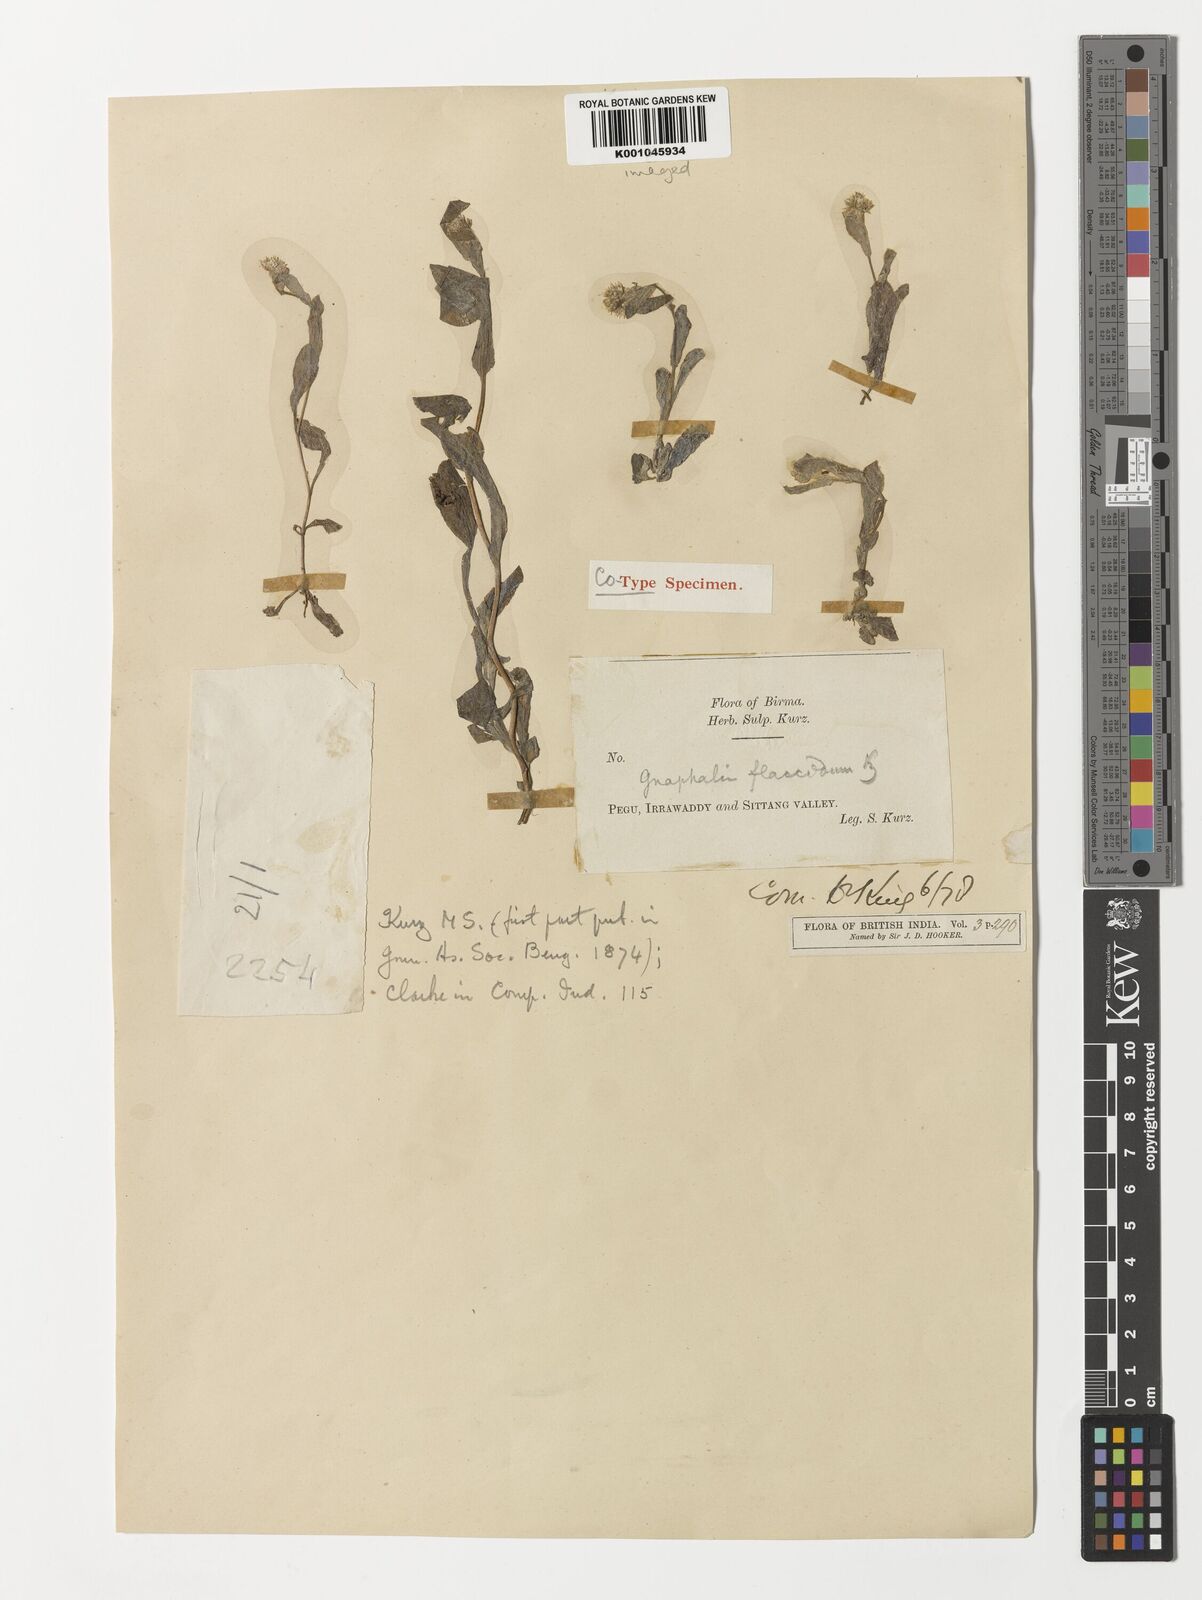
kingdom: Plantae
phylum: Tracheophyta
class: Magnoliopsida
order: Asterales
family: Asteraceae
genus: Gnaphalium
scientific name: Gnaphalium
